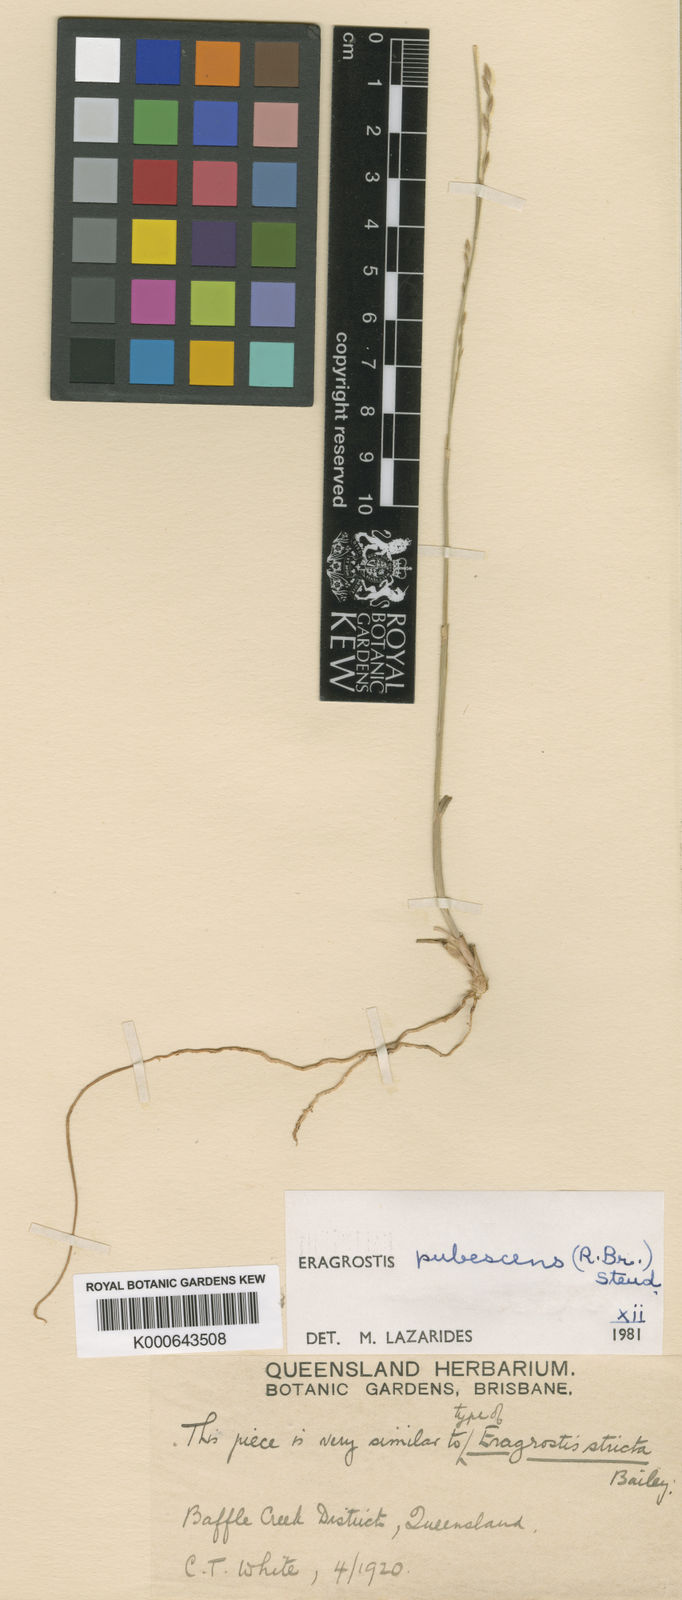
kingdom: Plantae
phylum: Tracheophyta
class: Liliopsida
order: Poales
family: Poaceae
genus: Eragrostis
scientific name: Eragrostis pubescens
